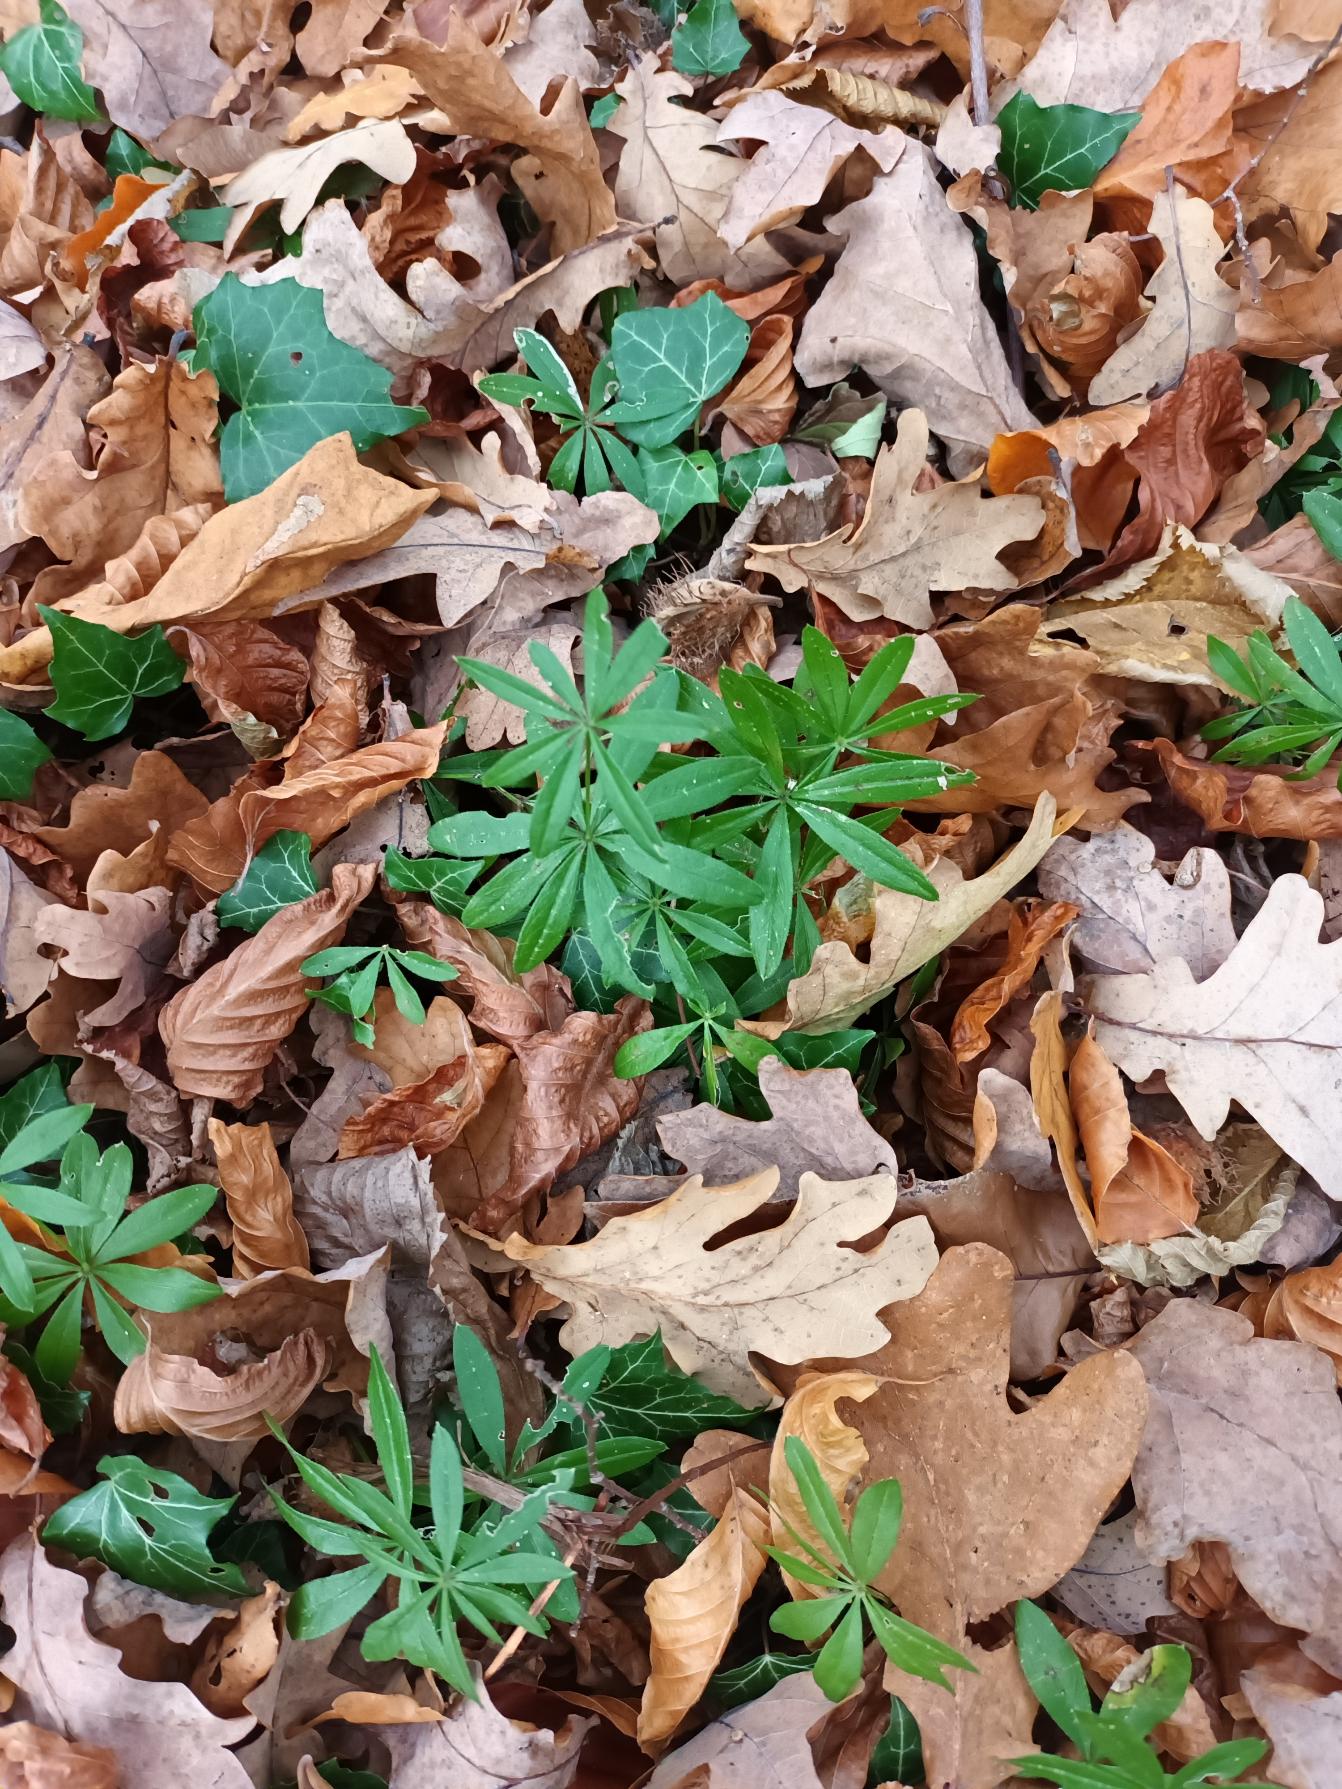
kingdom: Plantae
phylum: Tracheophyta
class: Magnoliopsida
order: Gentianales
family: Rubiaceae
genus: Galium
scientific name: Galium odoratum
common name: Skovmærke
